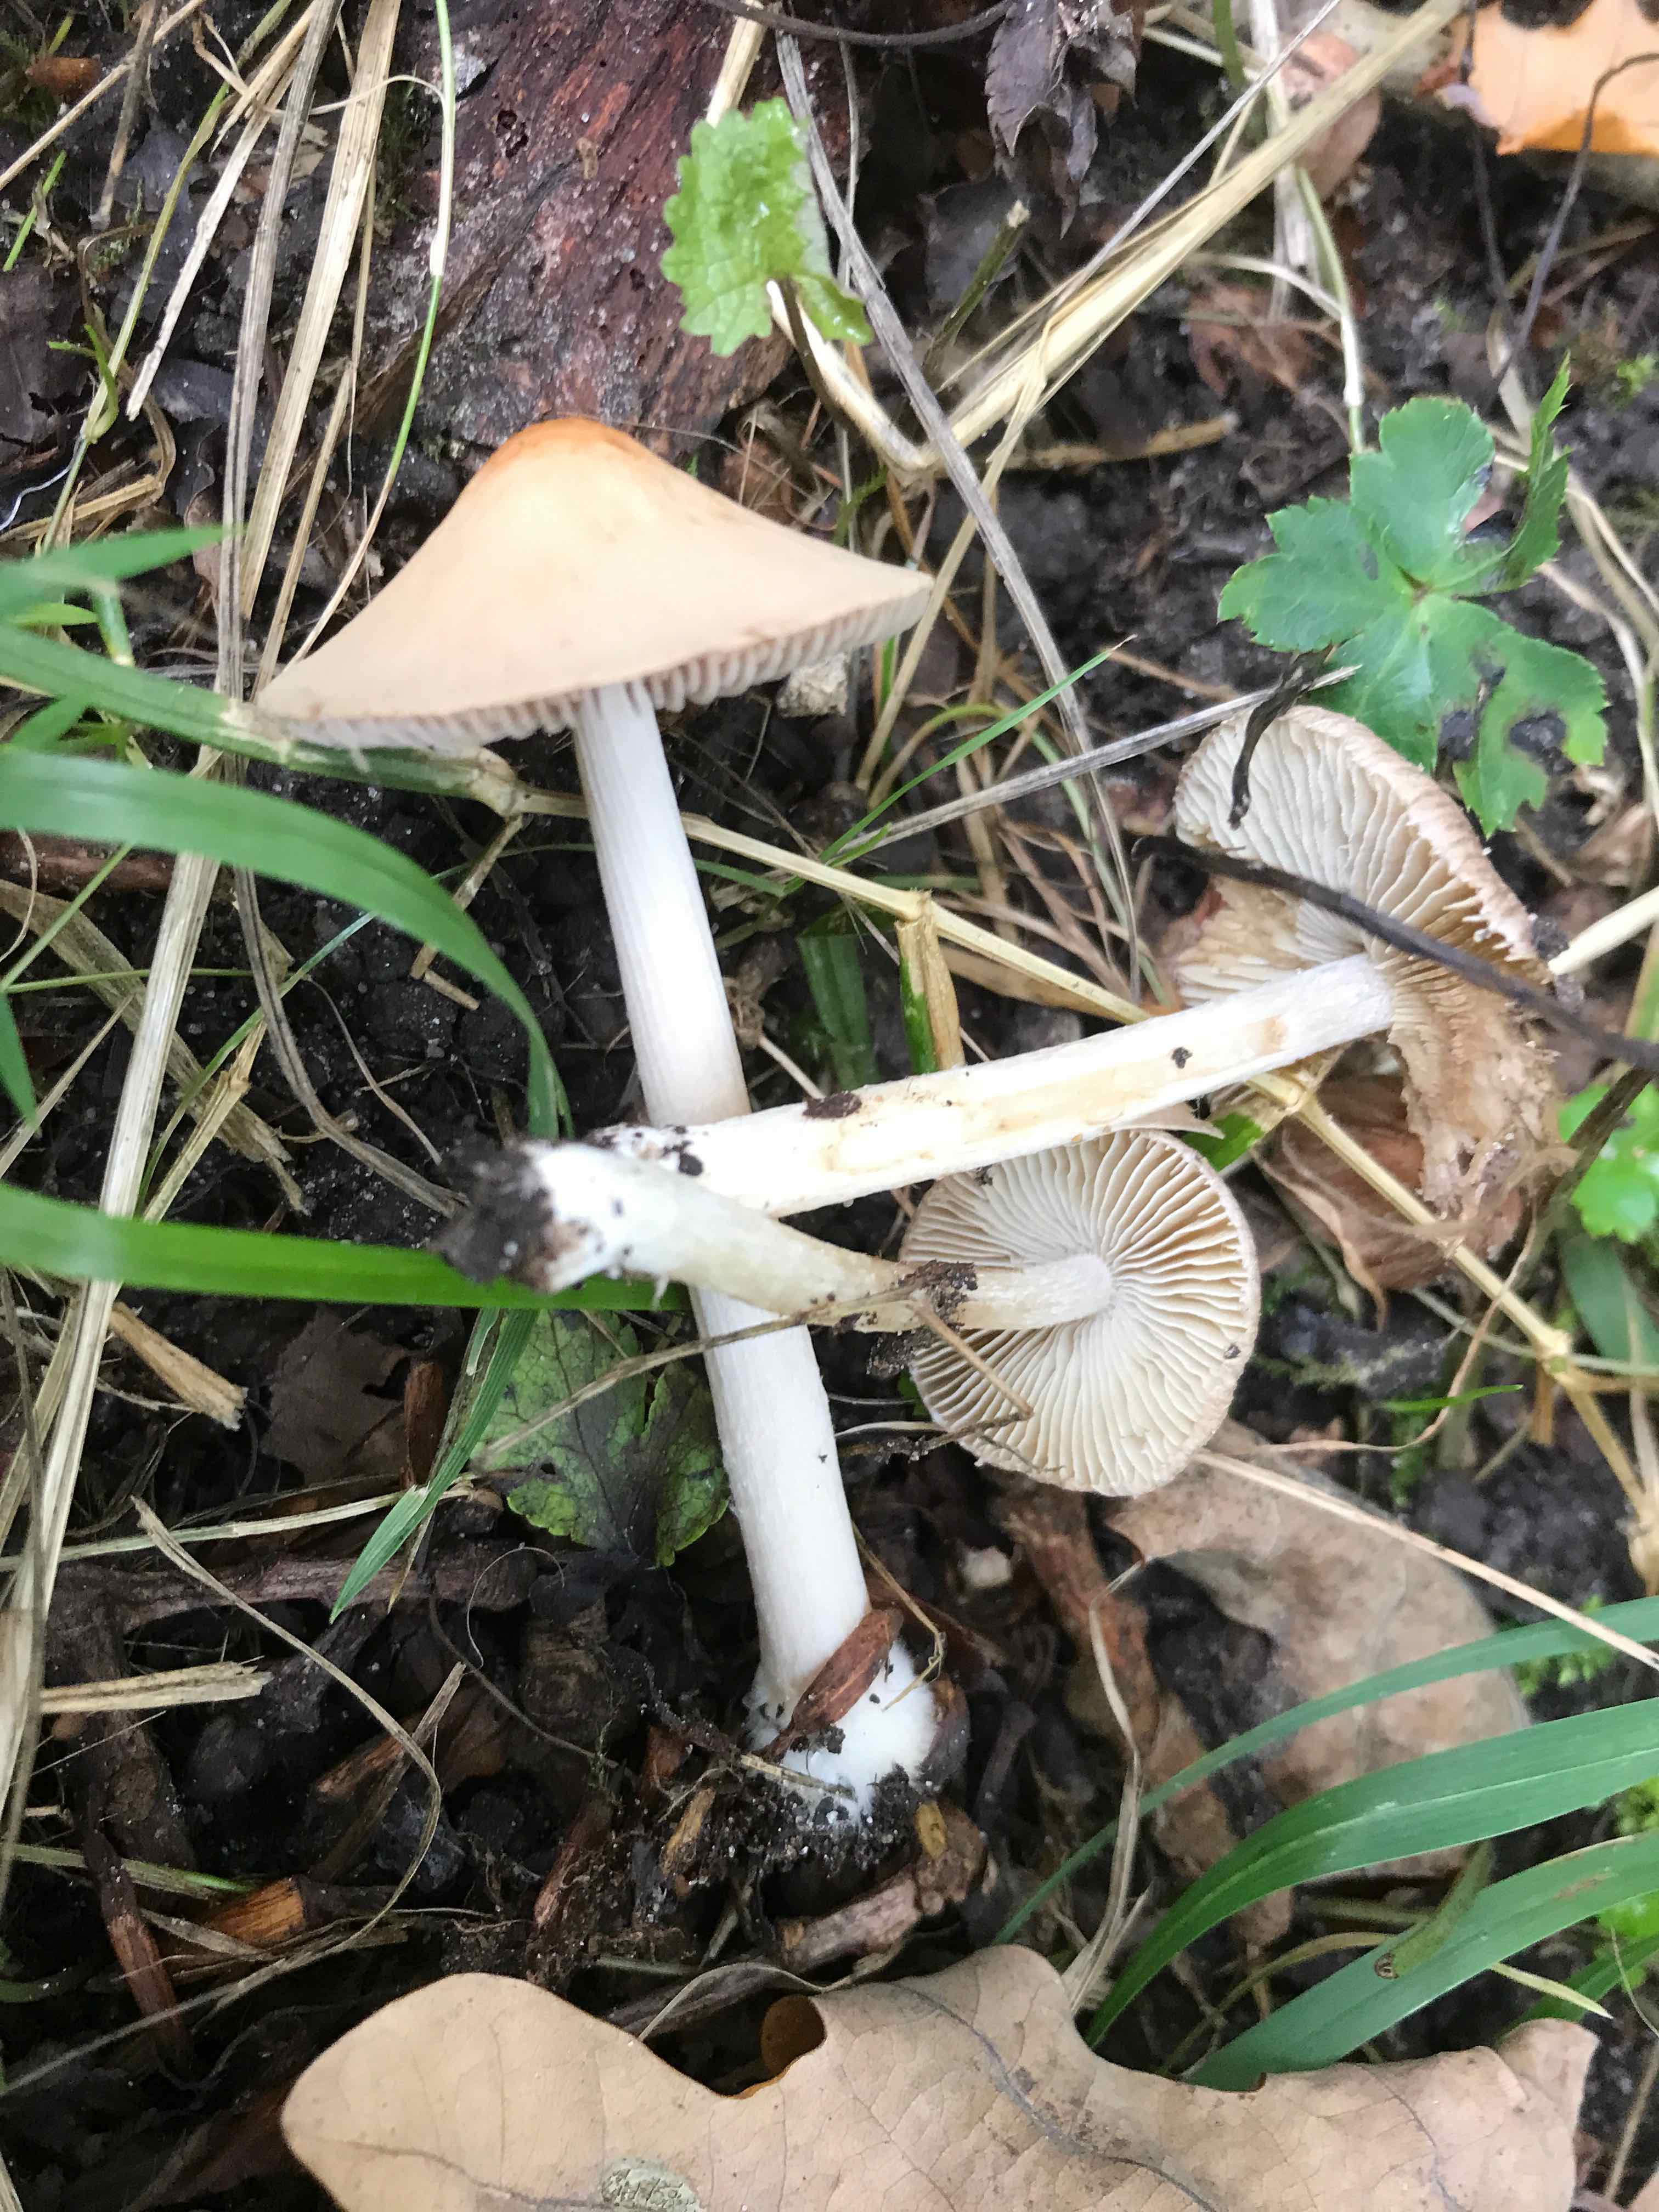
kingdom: Fungi
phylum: Basidiomycota
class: Agaricomycetes
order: Agaricales
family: Inocybaceae
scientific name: Inocybaceae
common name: trævlhatfamilien
